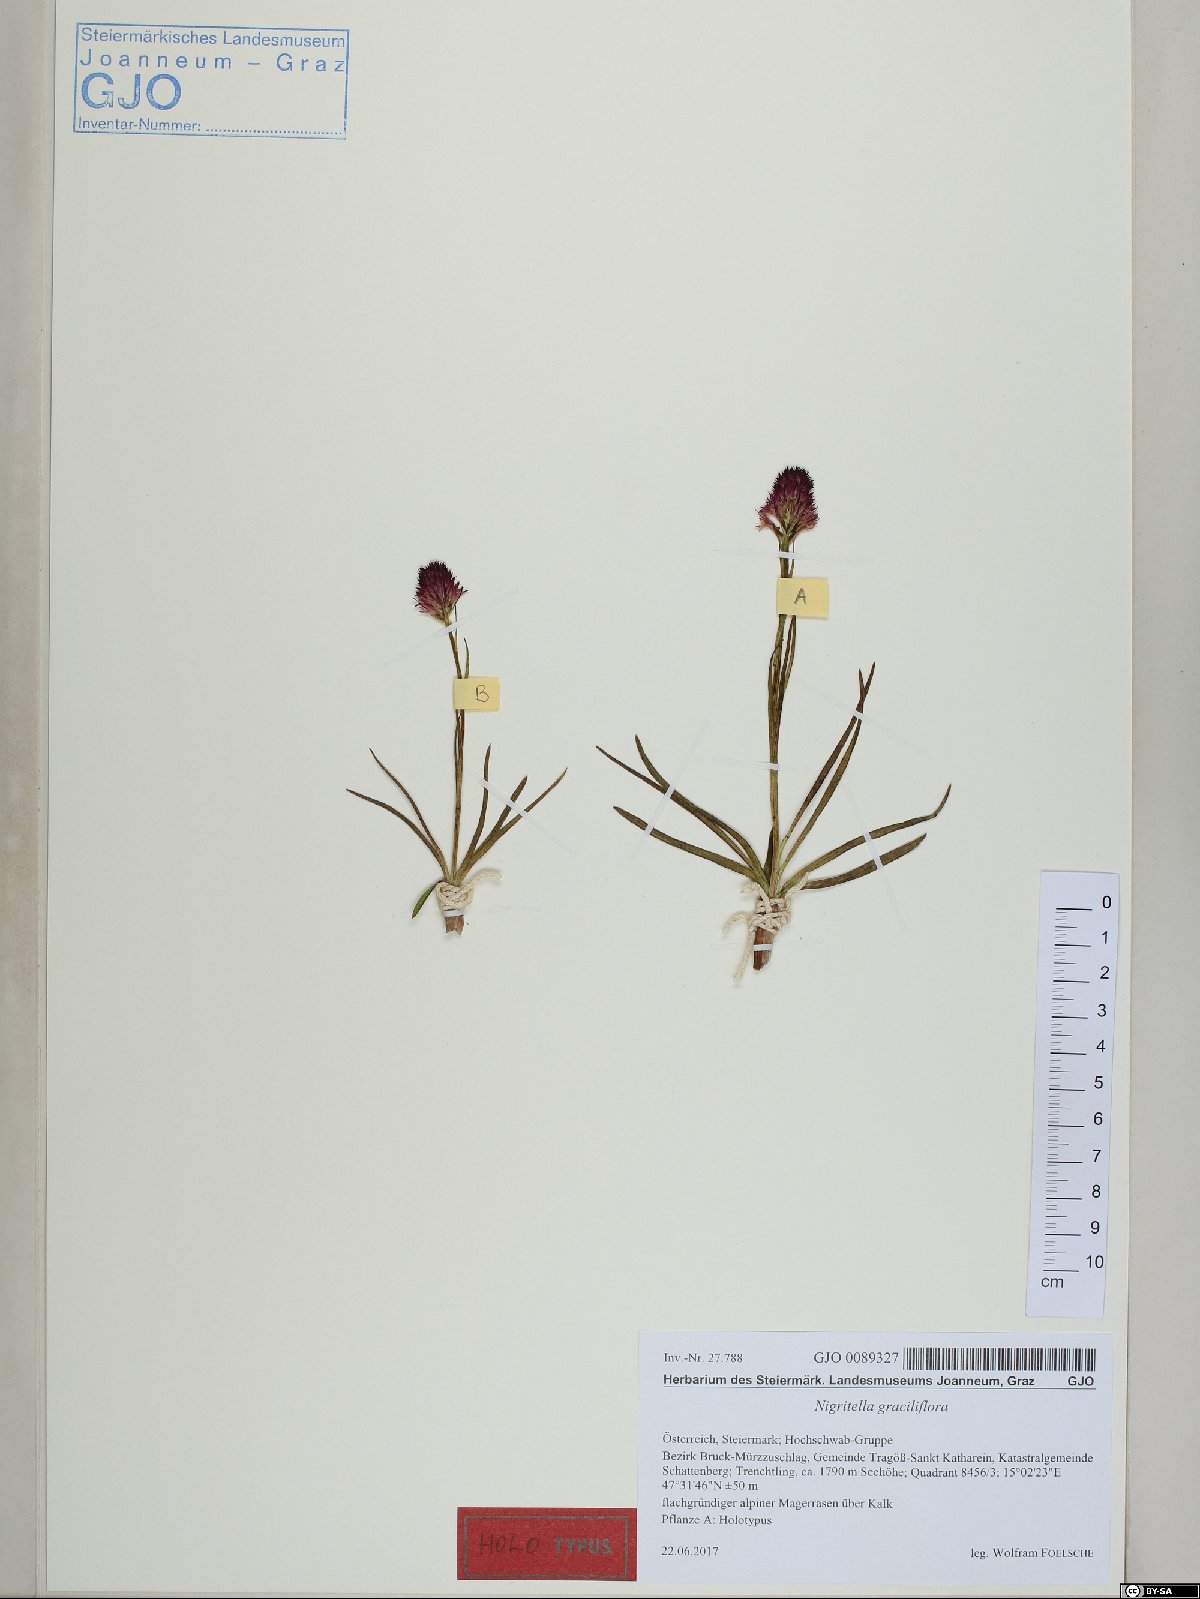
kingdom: Plantae
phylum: Tracheophyta
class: Liliopsida
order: Asparagales
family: Orchidaceae
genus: Gymnadenia
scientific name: Gymnadenia Nigritella graciliflora
